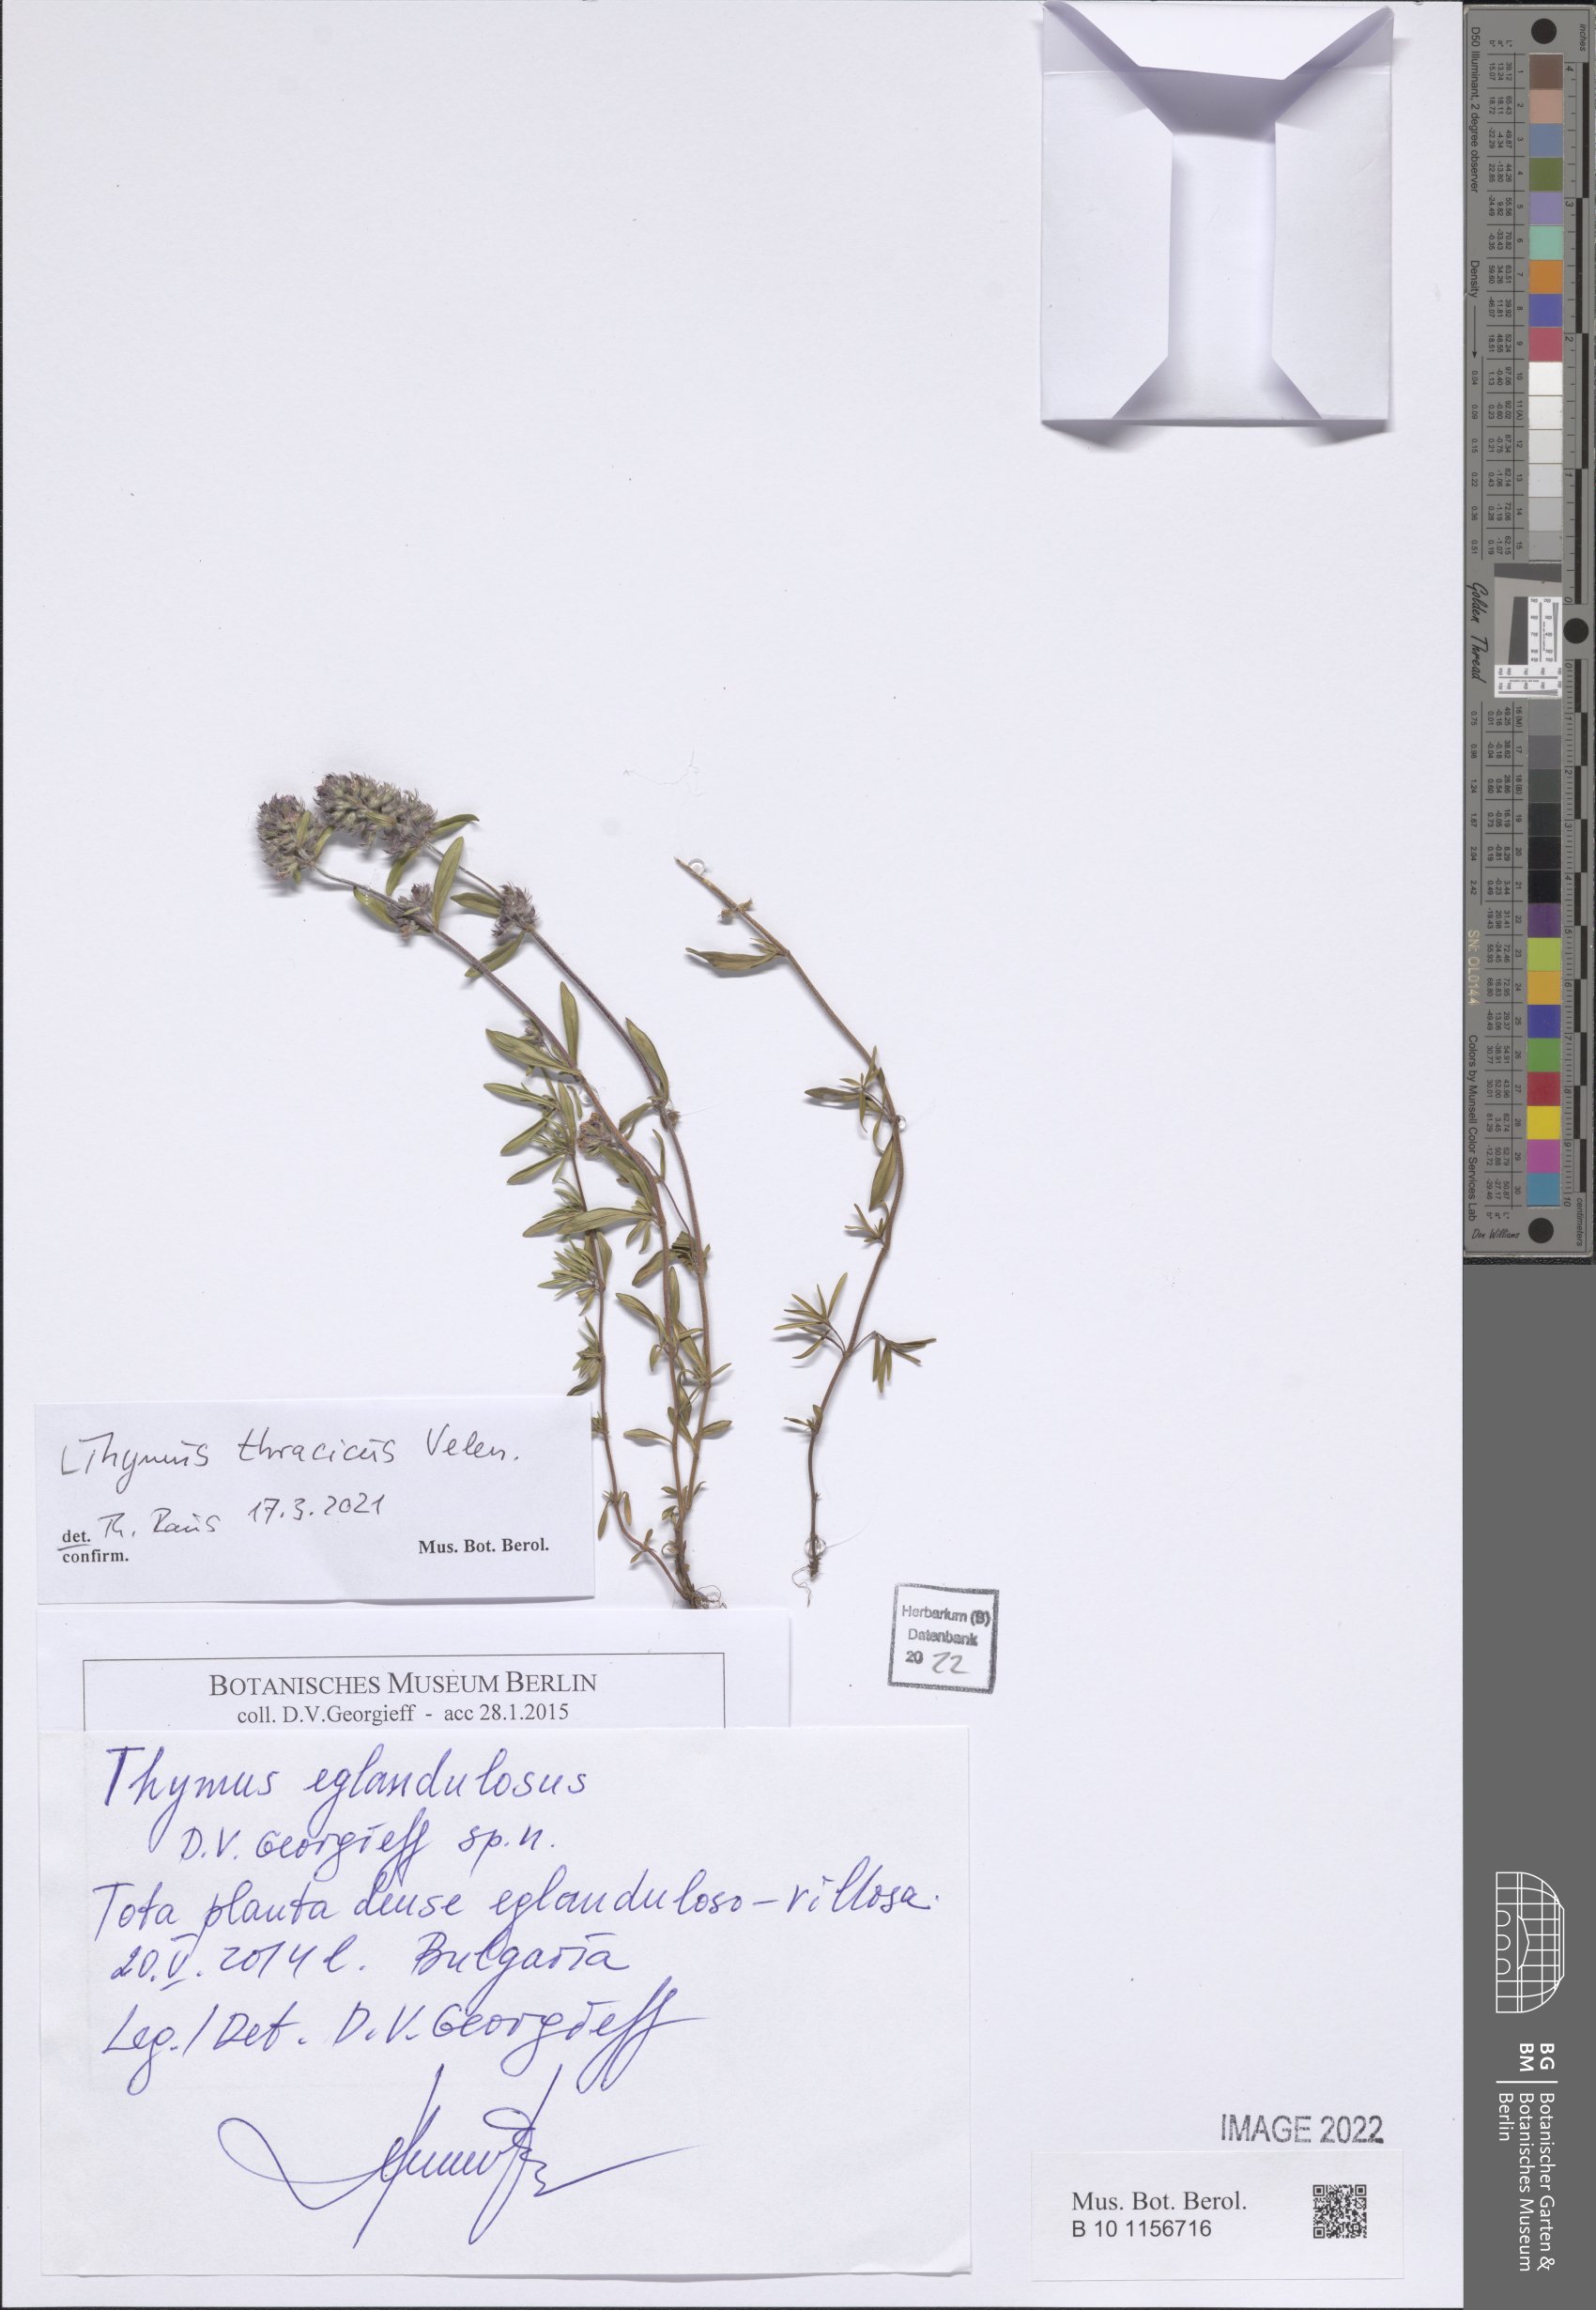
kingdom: Plantae
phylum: Tracheophyta
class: Magnoliopsida
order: Lamiales
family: Lamiaceae
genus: Thymus
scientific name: Thymus thracicus
